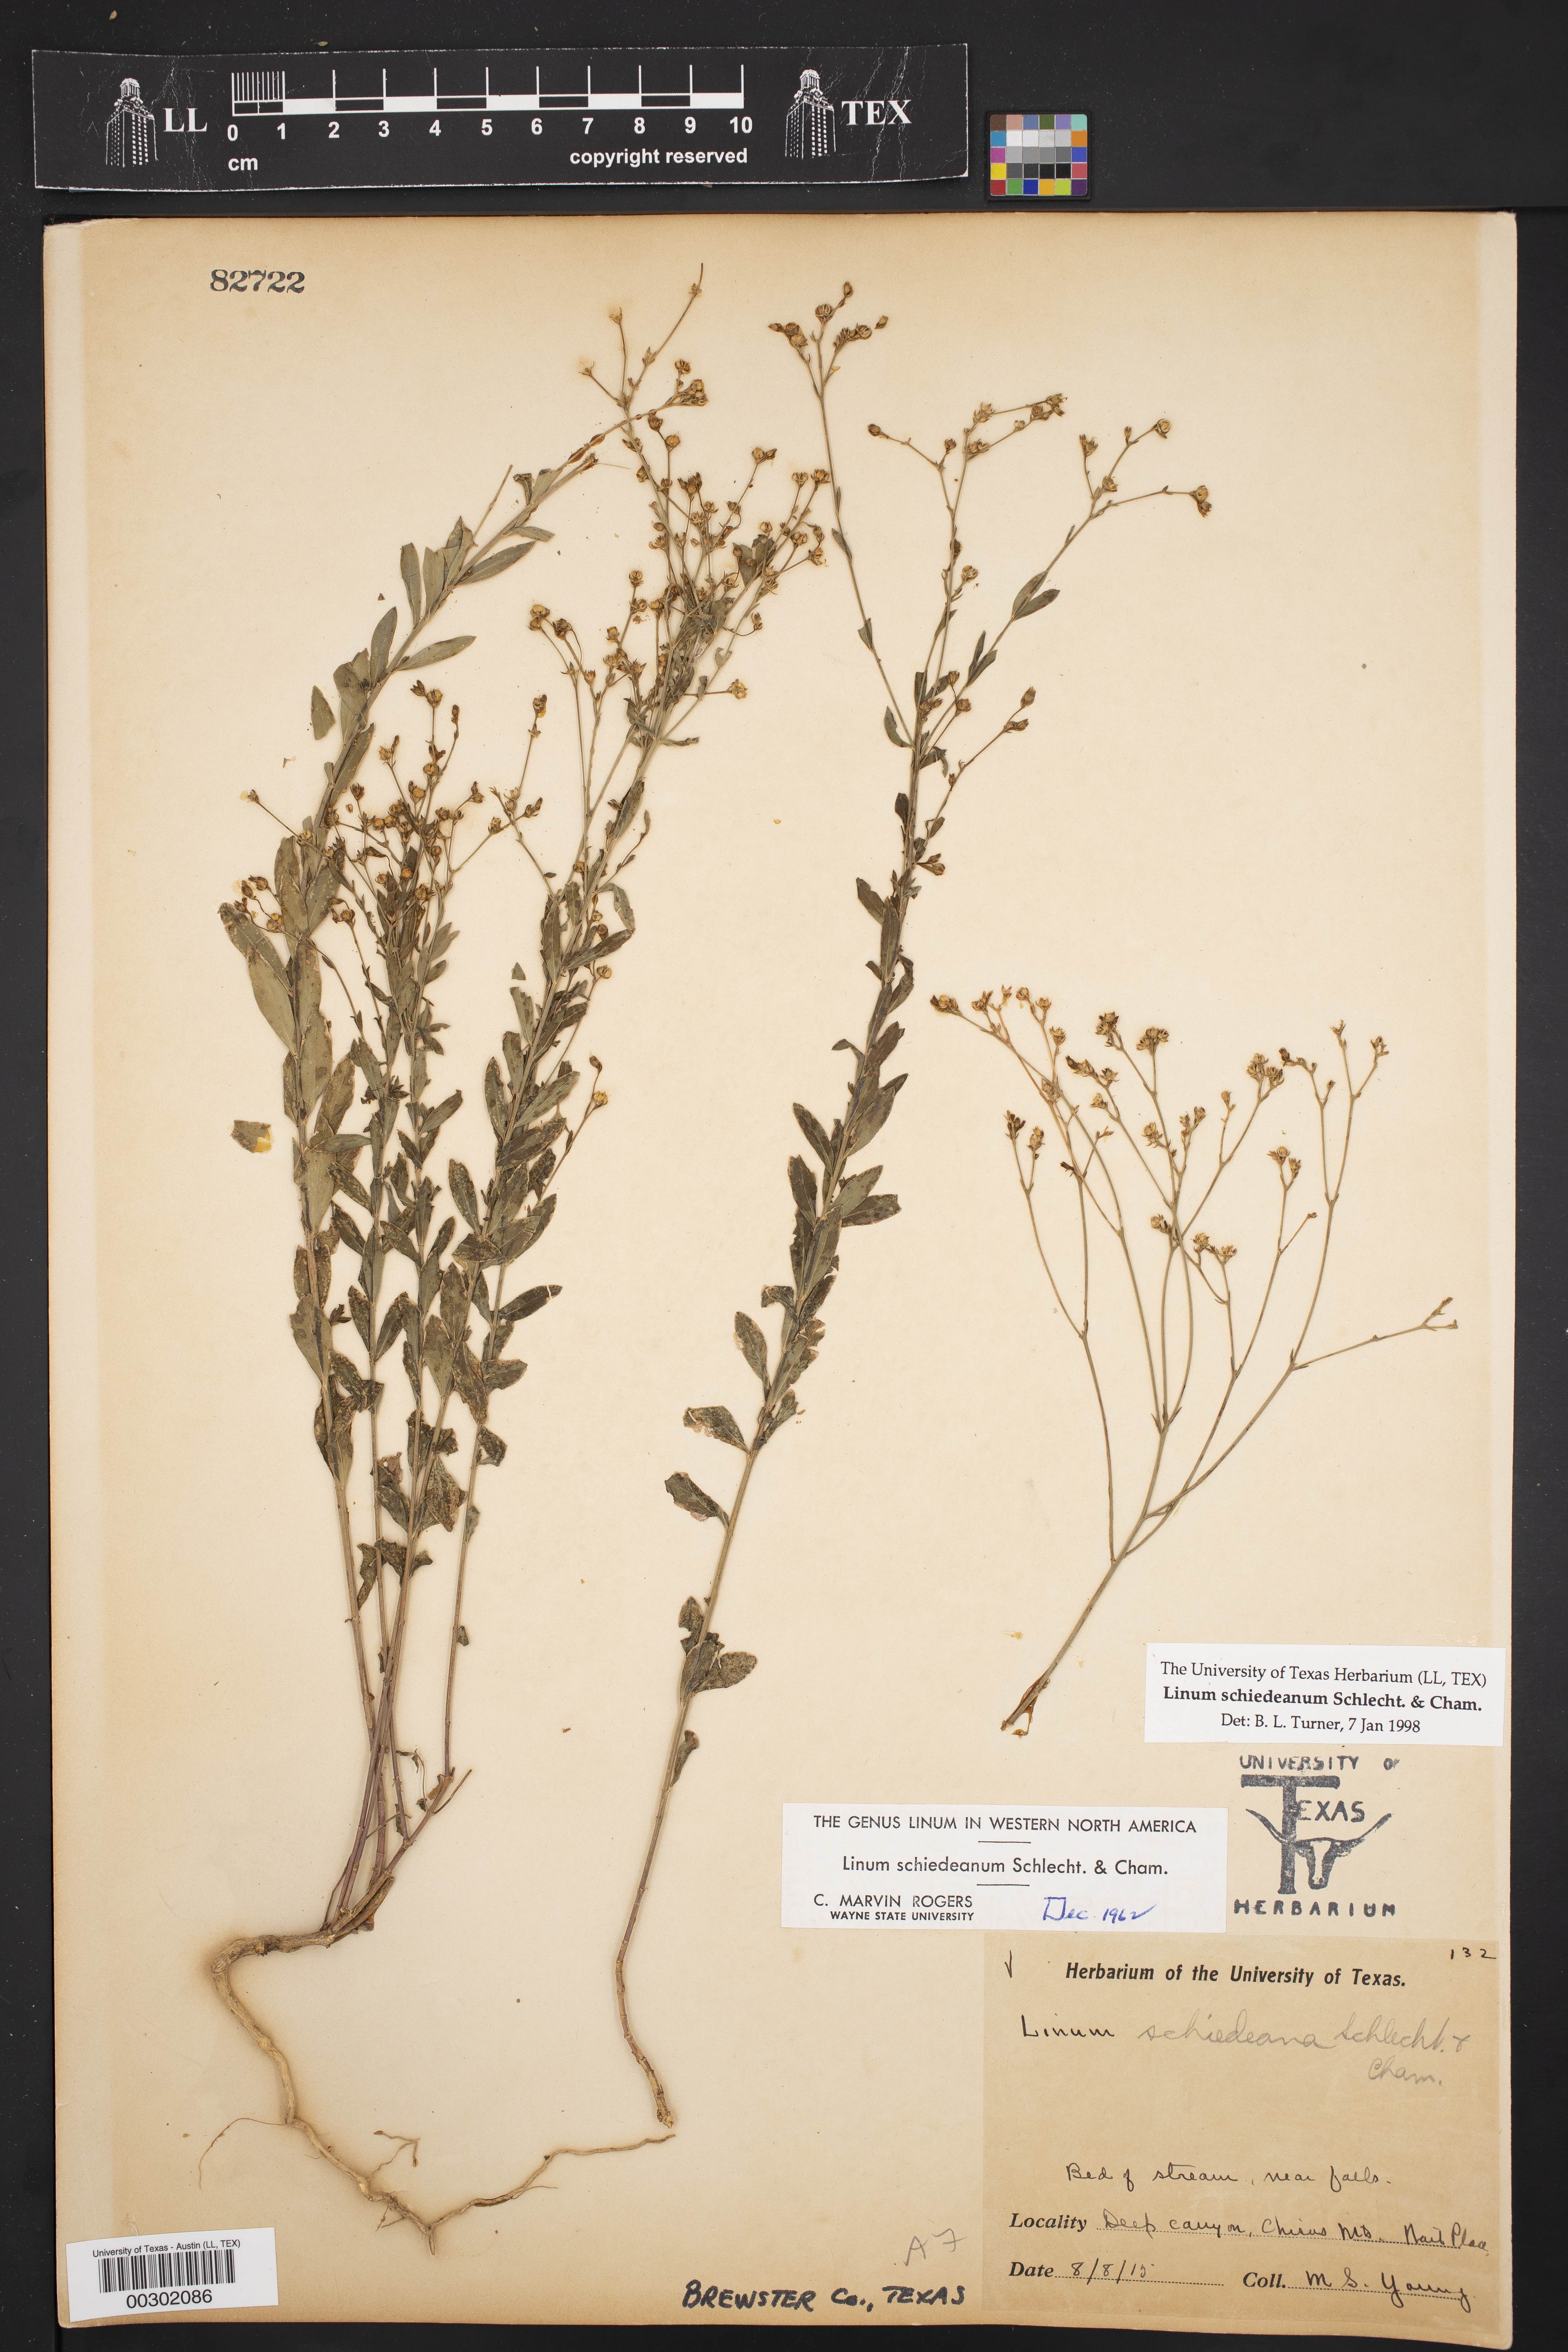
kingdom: Plantae
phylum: Tracheophyta
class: Magnoliopsida
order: Malpighiales
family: Linaceae
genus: Linum
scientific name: Linum schiedeanum
